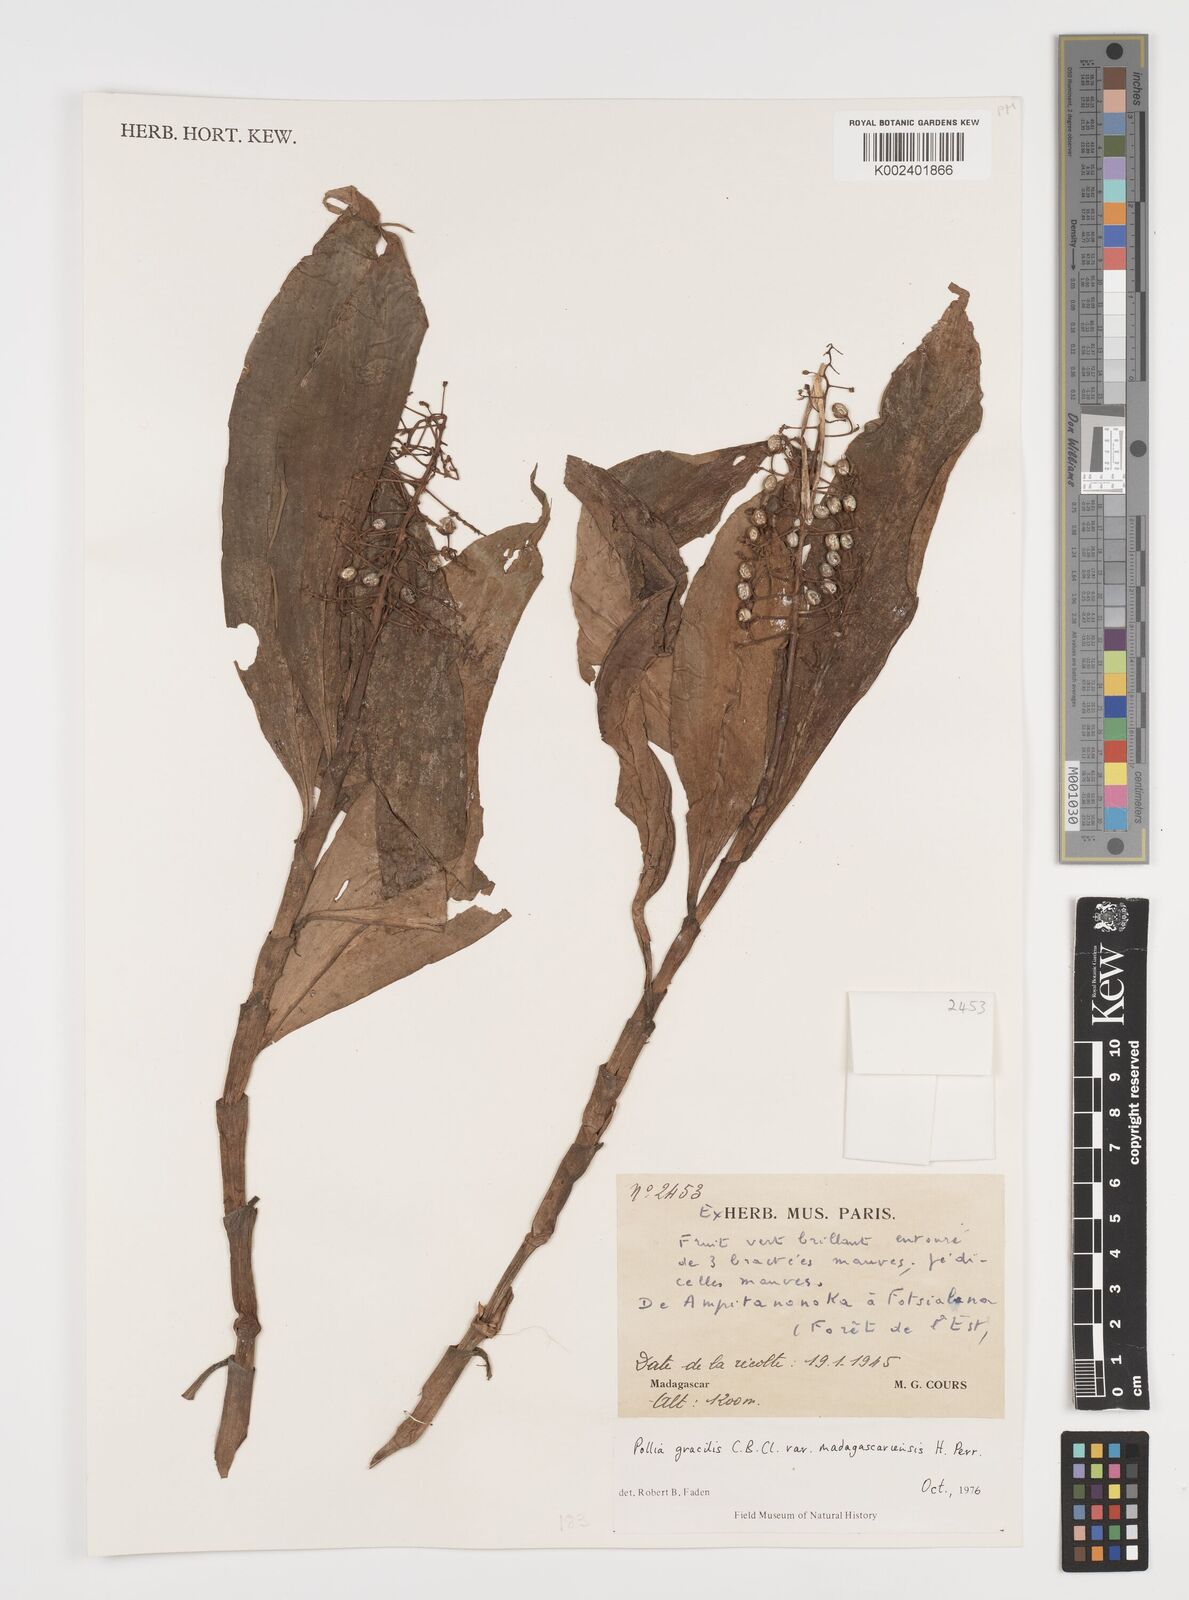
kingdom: Plantae
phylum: Tracheophyta
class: Liliopsida
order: Commelinales
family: Commelinaceae
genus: Pollia
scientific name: Pollia gracilis
